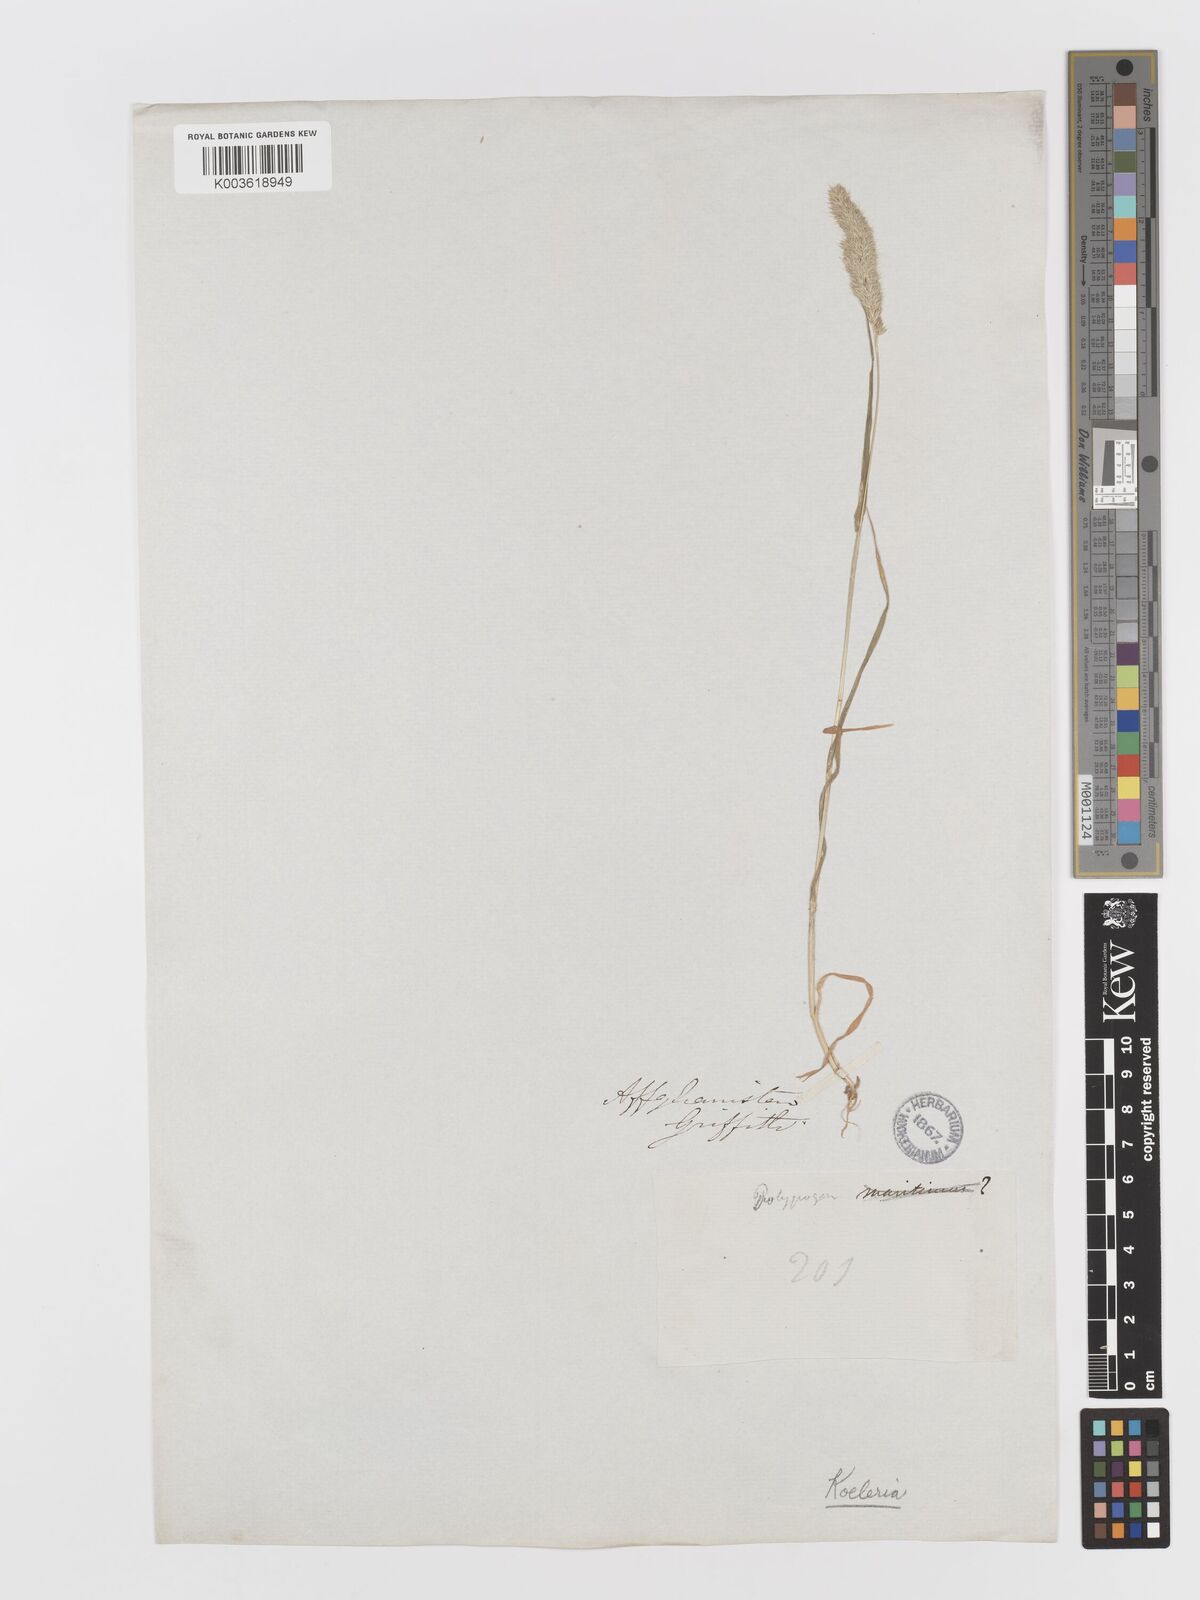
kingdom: Plantae
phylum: Tracheophyta
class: Liliopsida
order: Poales
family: Poaceae
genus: Rostraria
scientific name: Rostraria cristata
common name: Mediterranean hair-grass
